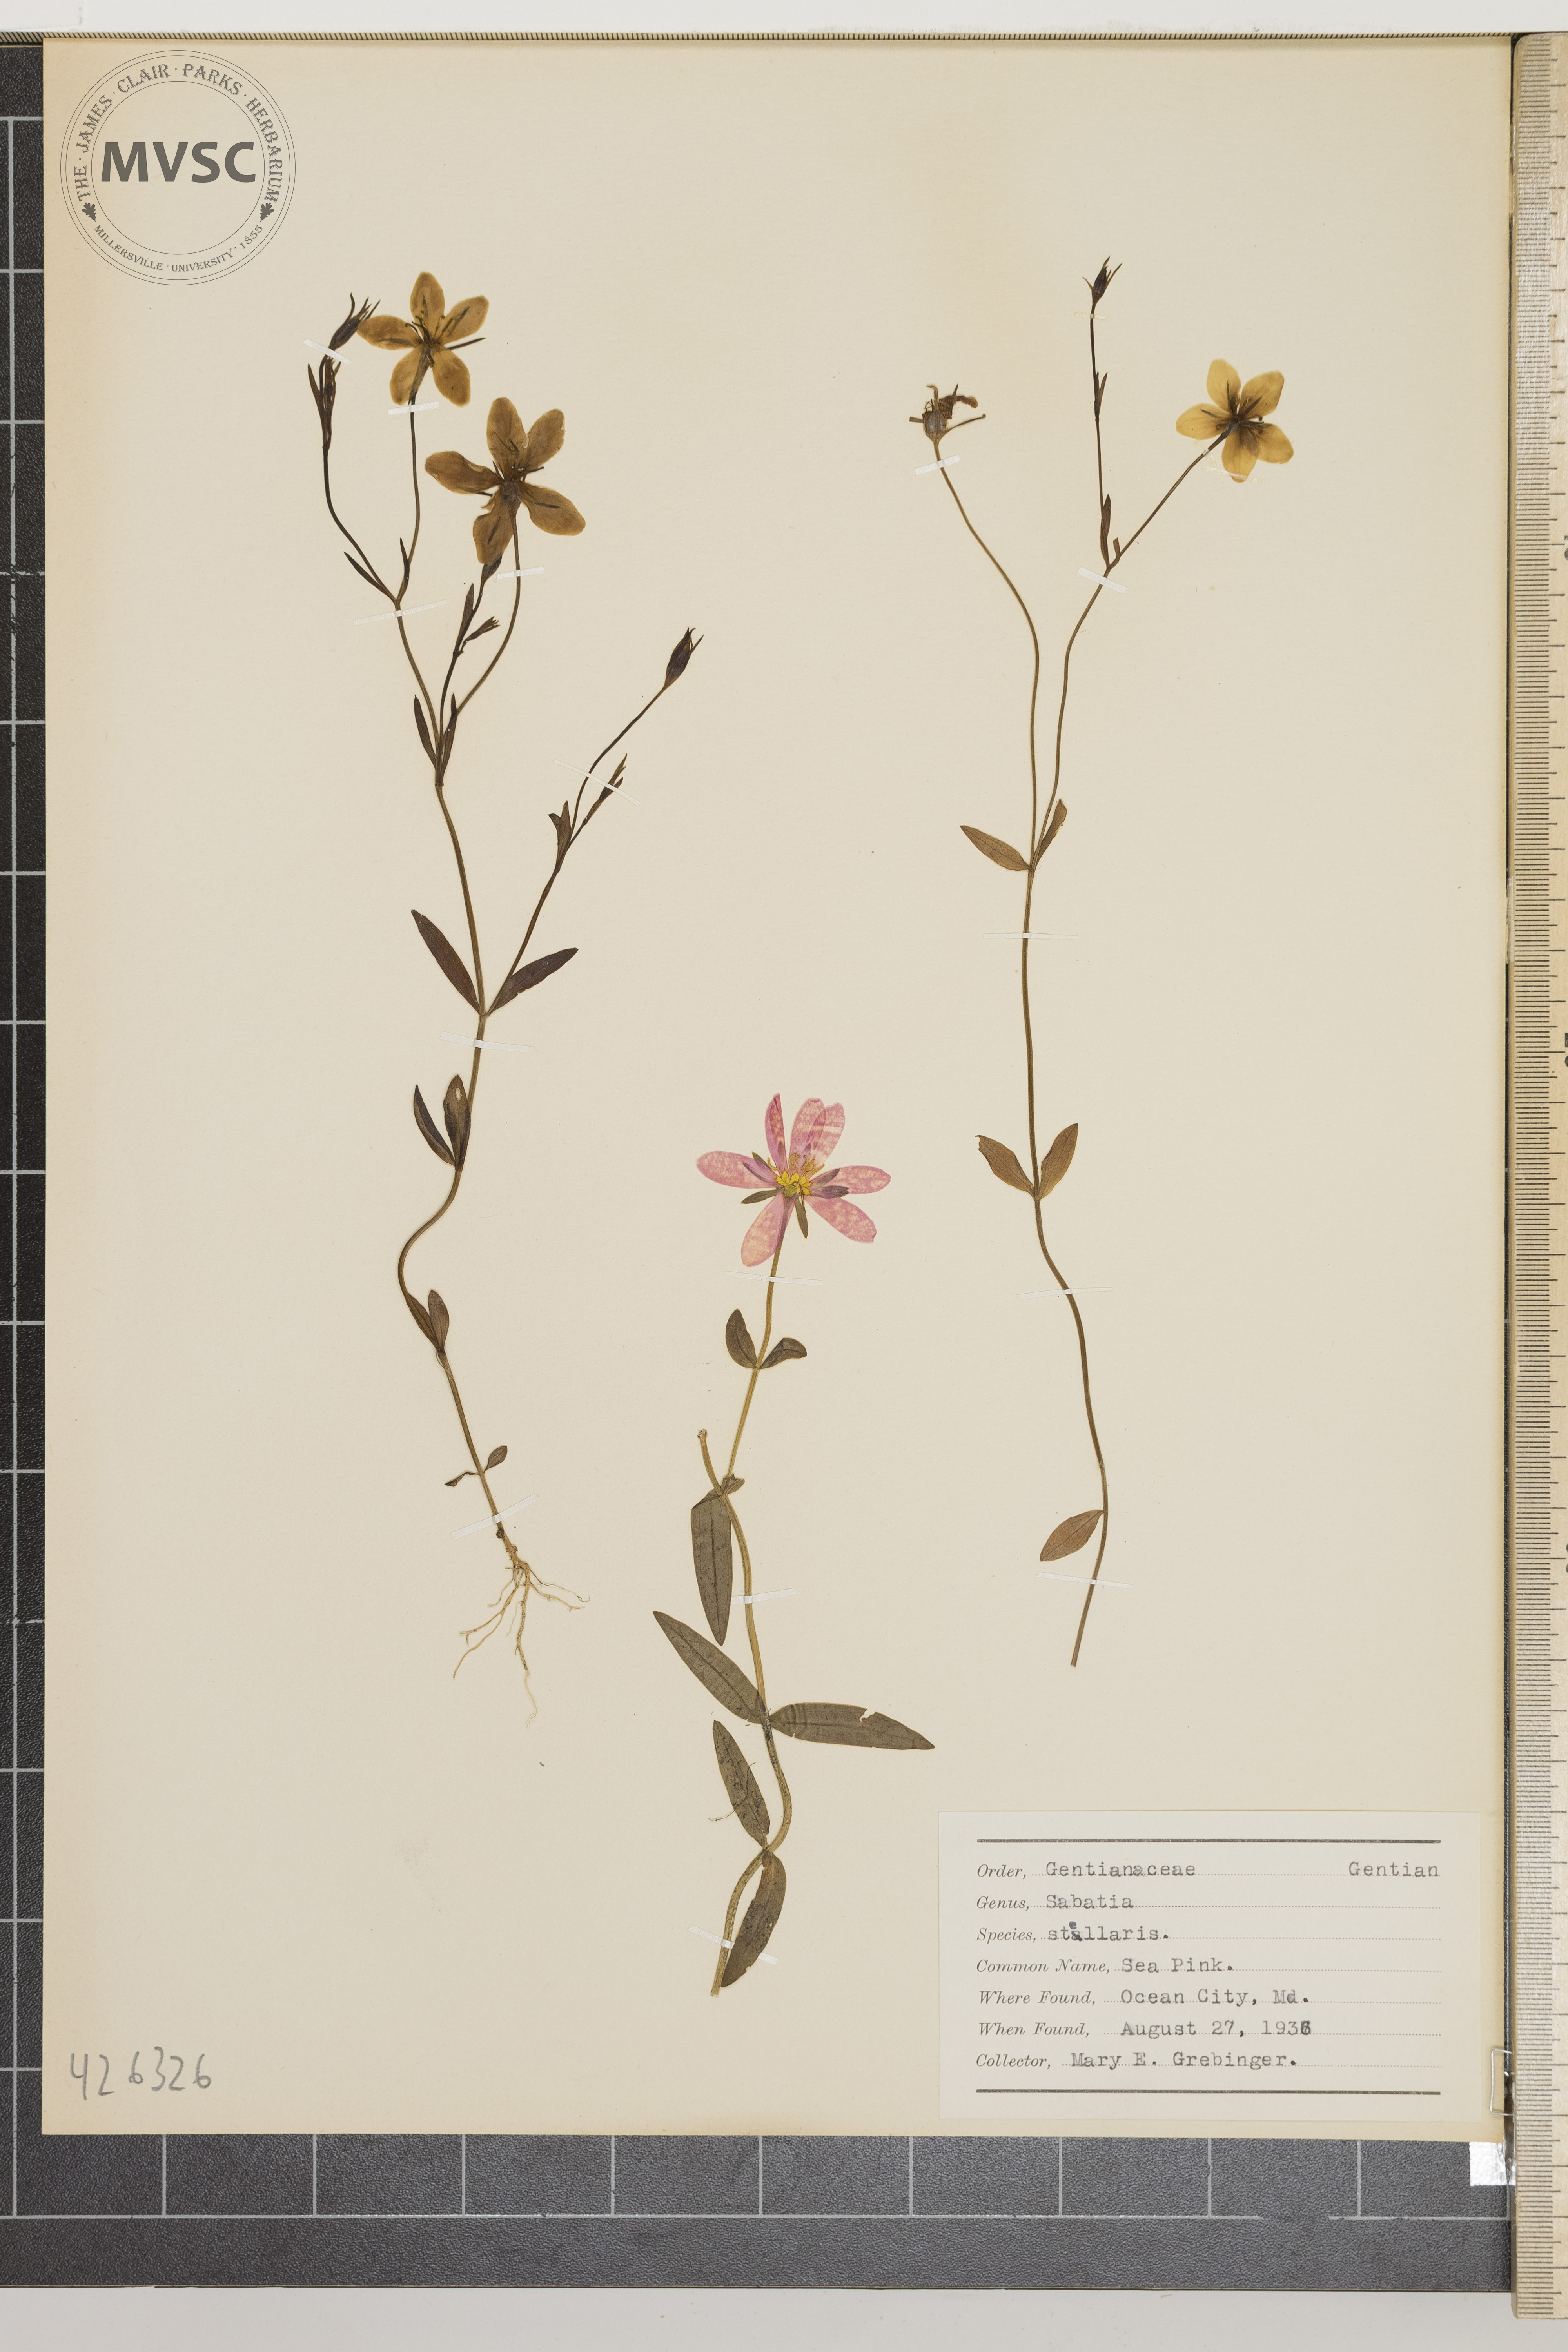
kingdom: Plantae
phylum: Tracheophyta
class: Magnoliopsida
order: Gentianales
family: Gentianaceae
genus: Sabatia
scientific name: Sabatia stellaris
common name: Sea pink
